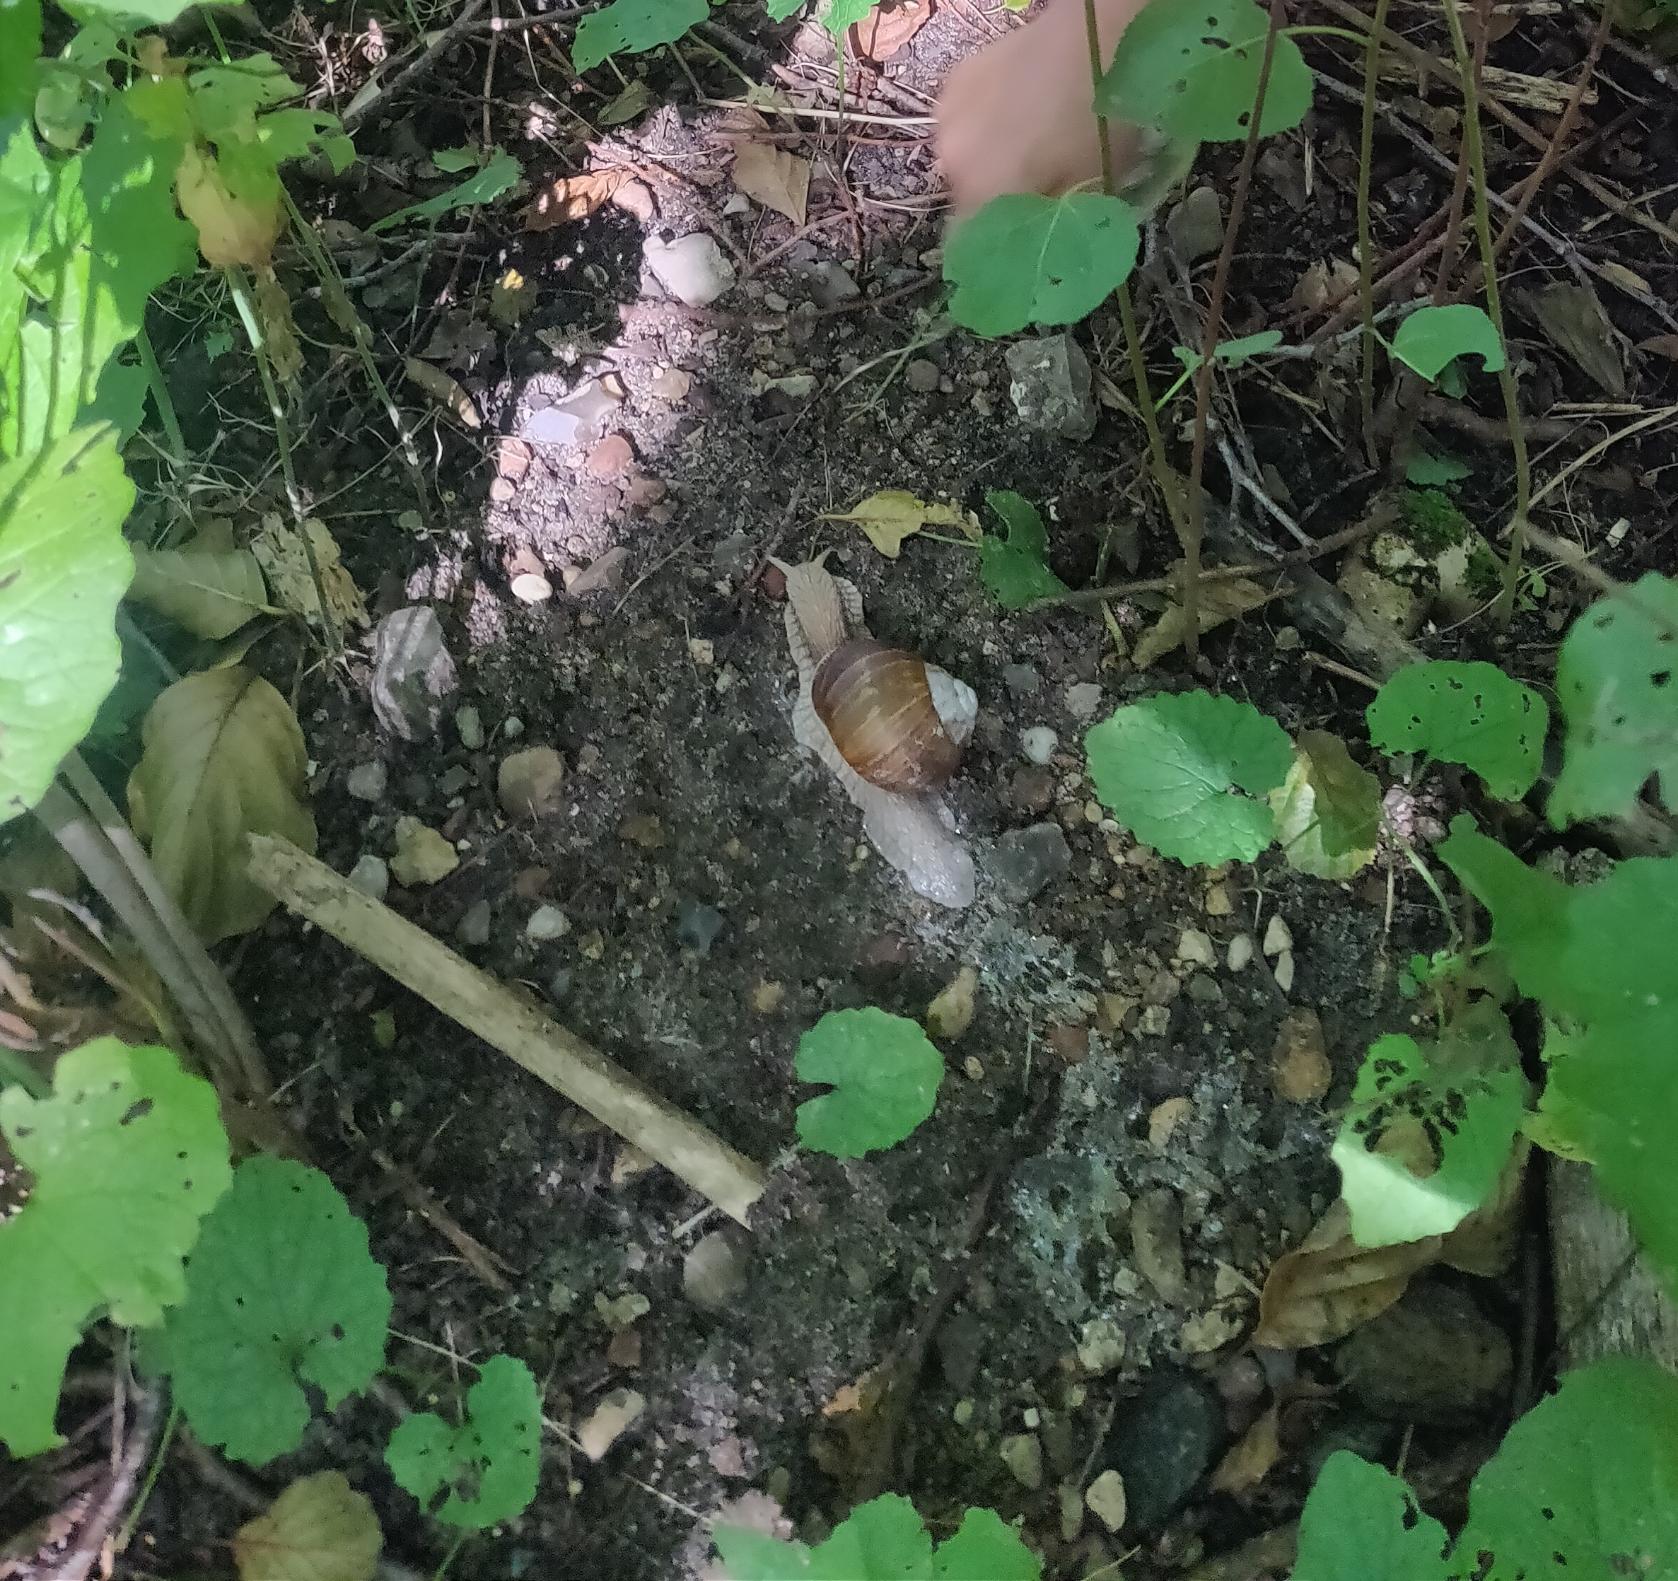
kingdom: Animalia
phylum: Mollusca
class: Gastropoda
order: Stylommatophora
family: Helicidae
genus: Helix
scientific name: Helix pomatia
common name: Vinbjergsnegl
